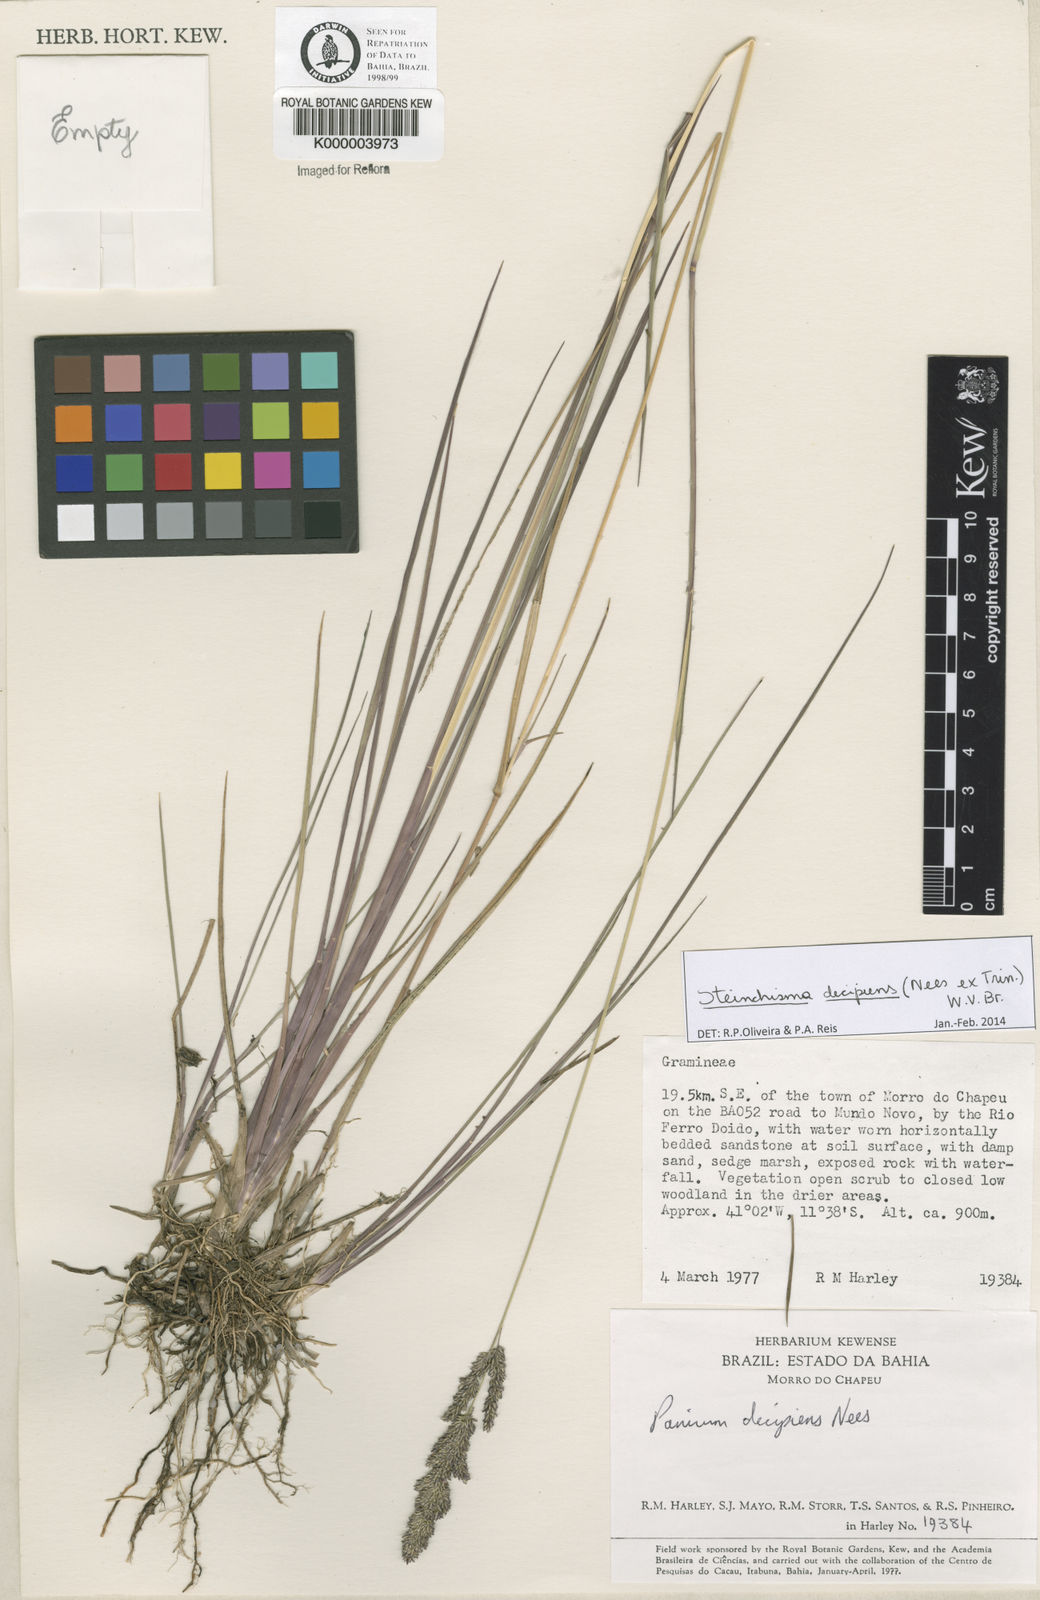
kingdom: Plantae
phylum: Tracheophyta
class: Liliopsida
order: Poales
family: Poaceae
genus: Panicum
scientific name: Panicum
